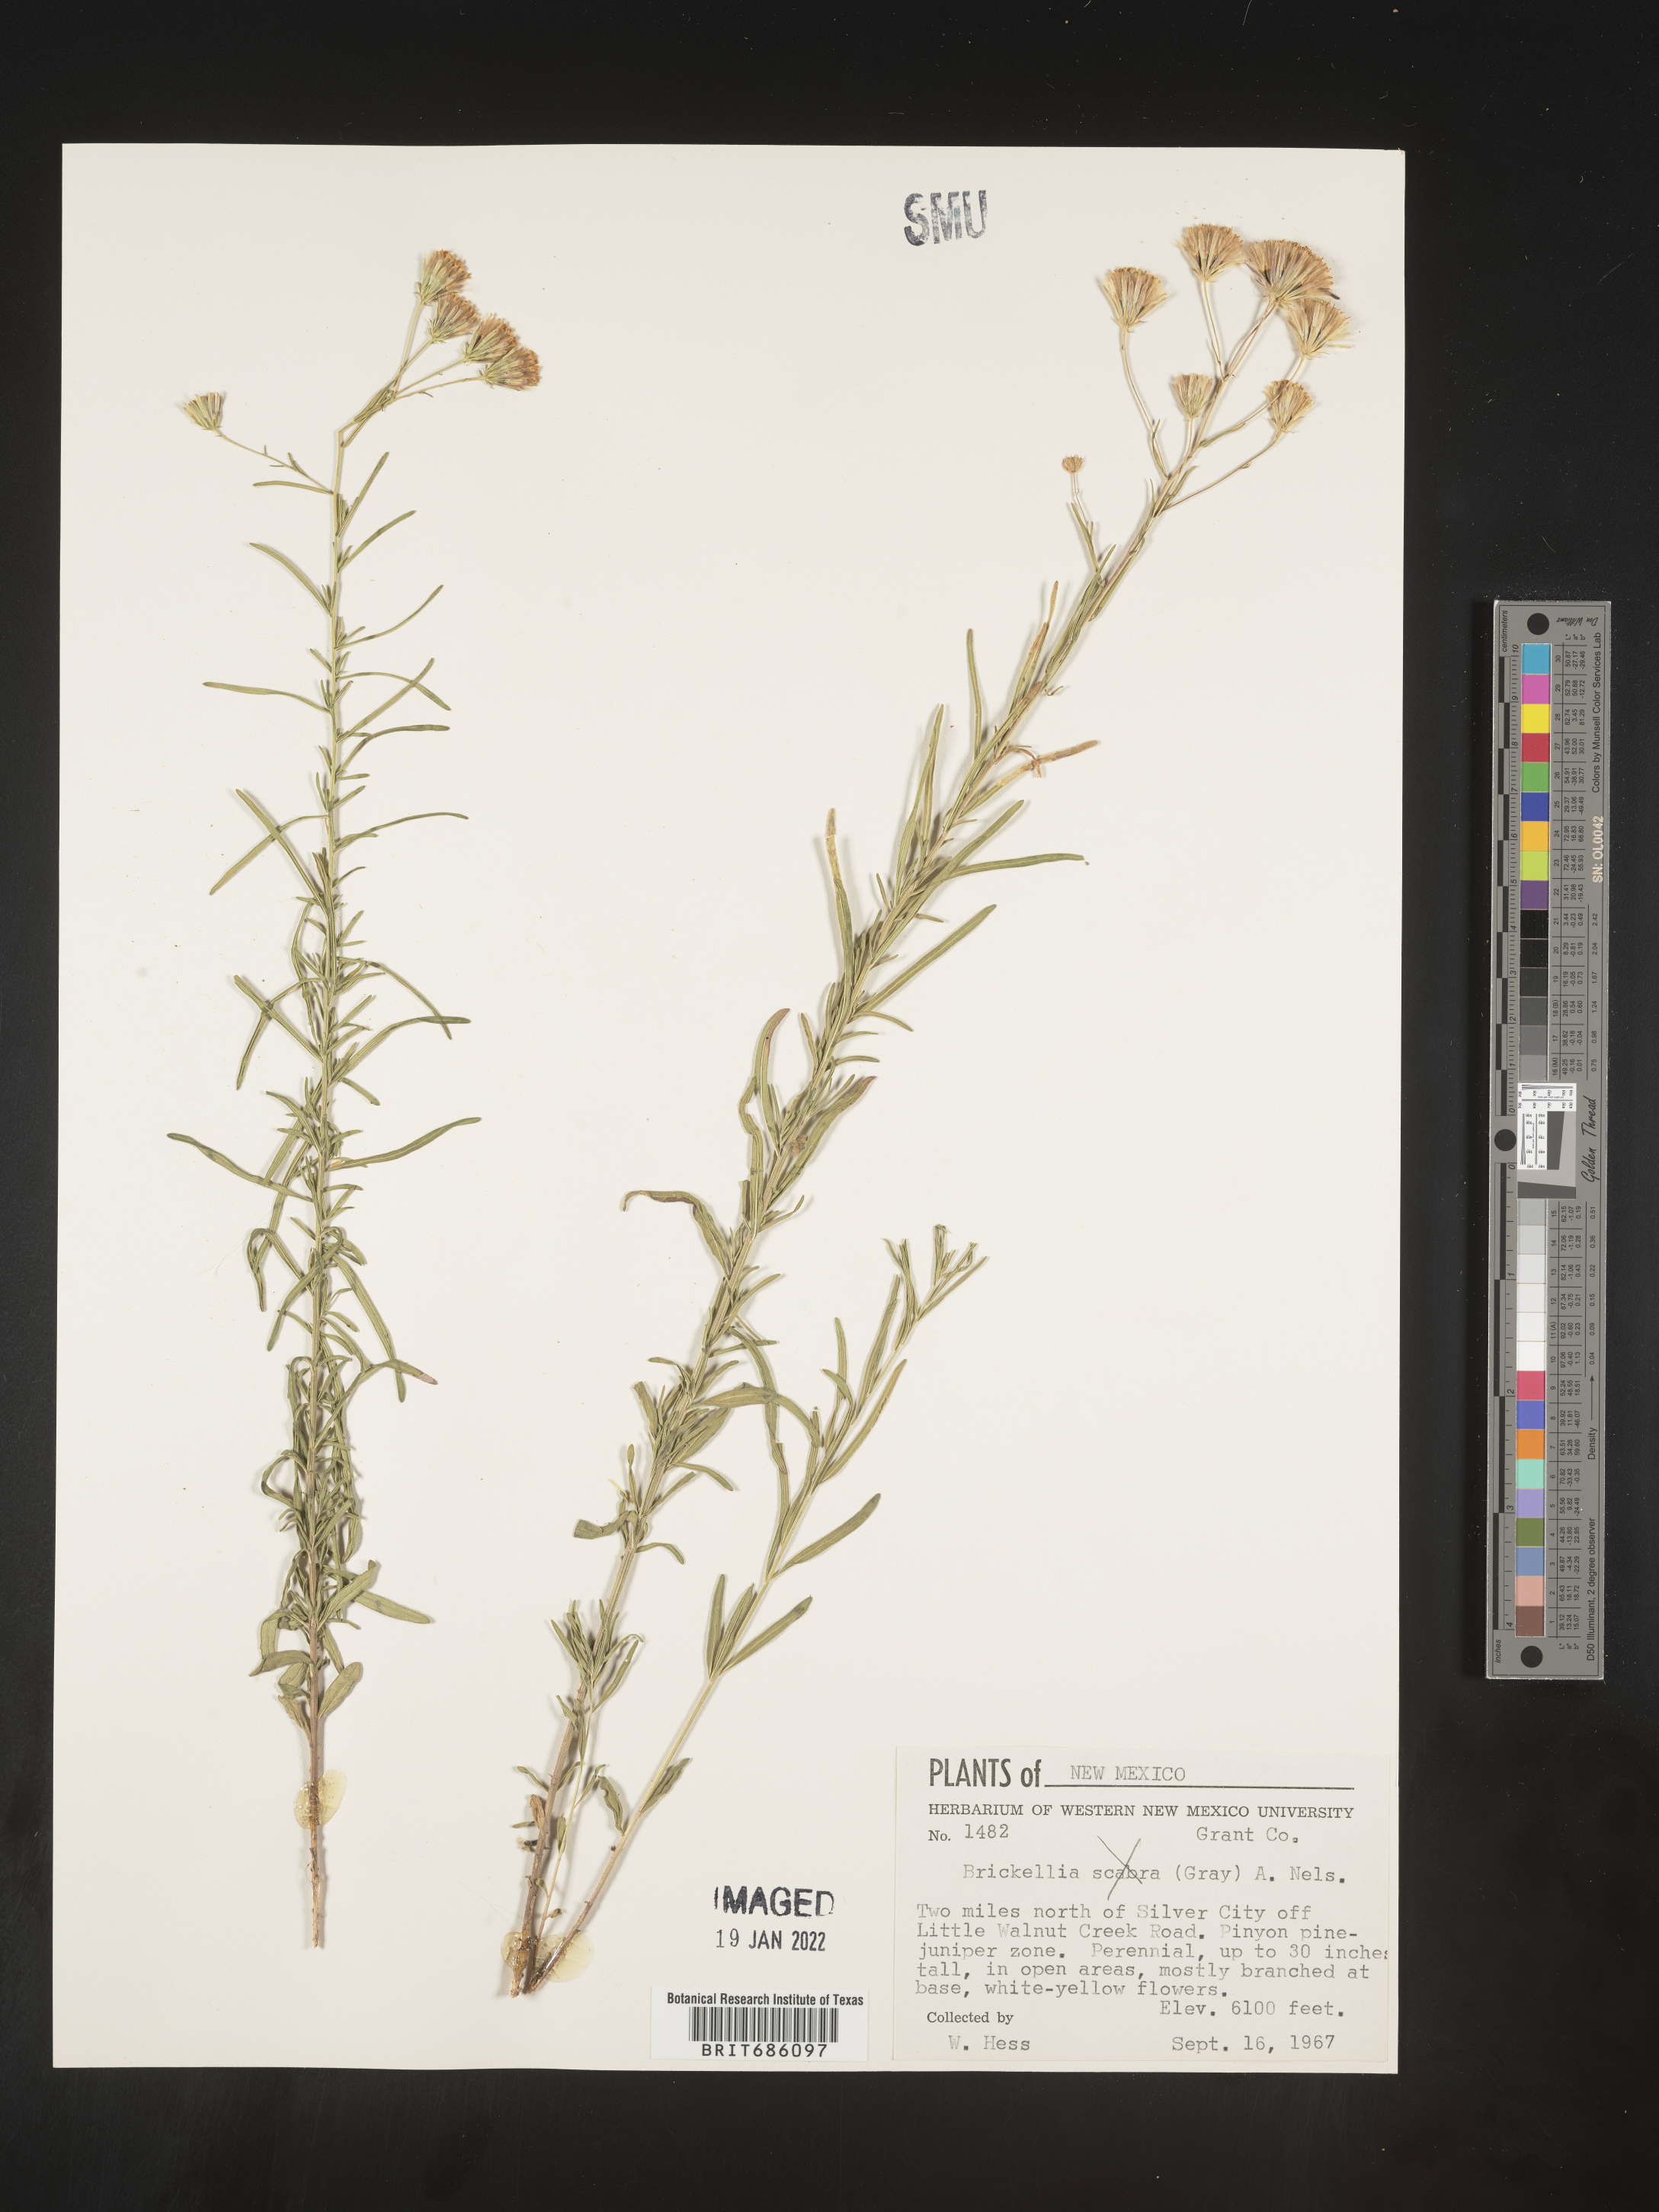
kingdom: Plantae
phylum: Tracheophyta
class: Magnoliopsida
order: Asterales
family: Asteraceae
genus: Brickellia
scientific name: Brickellia
